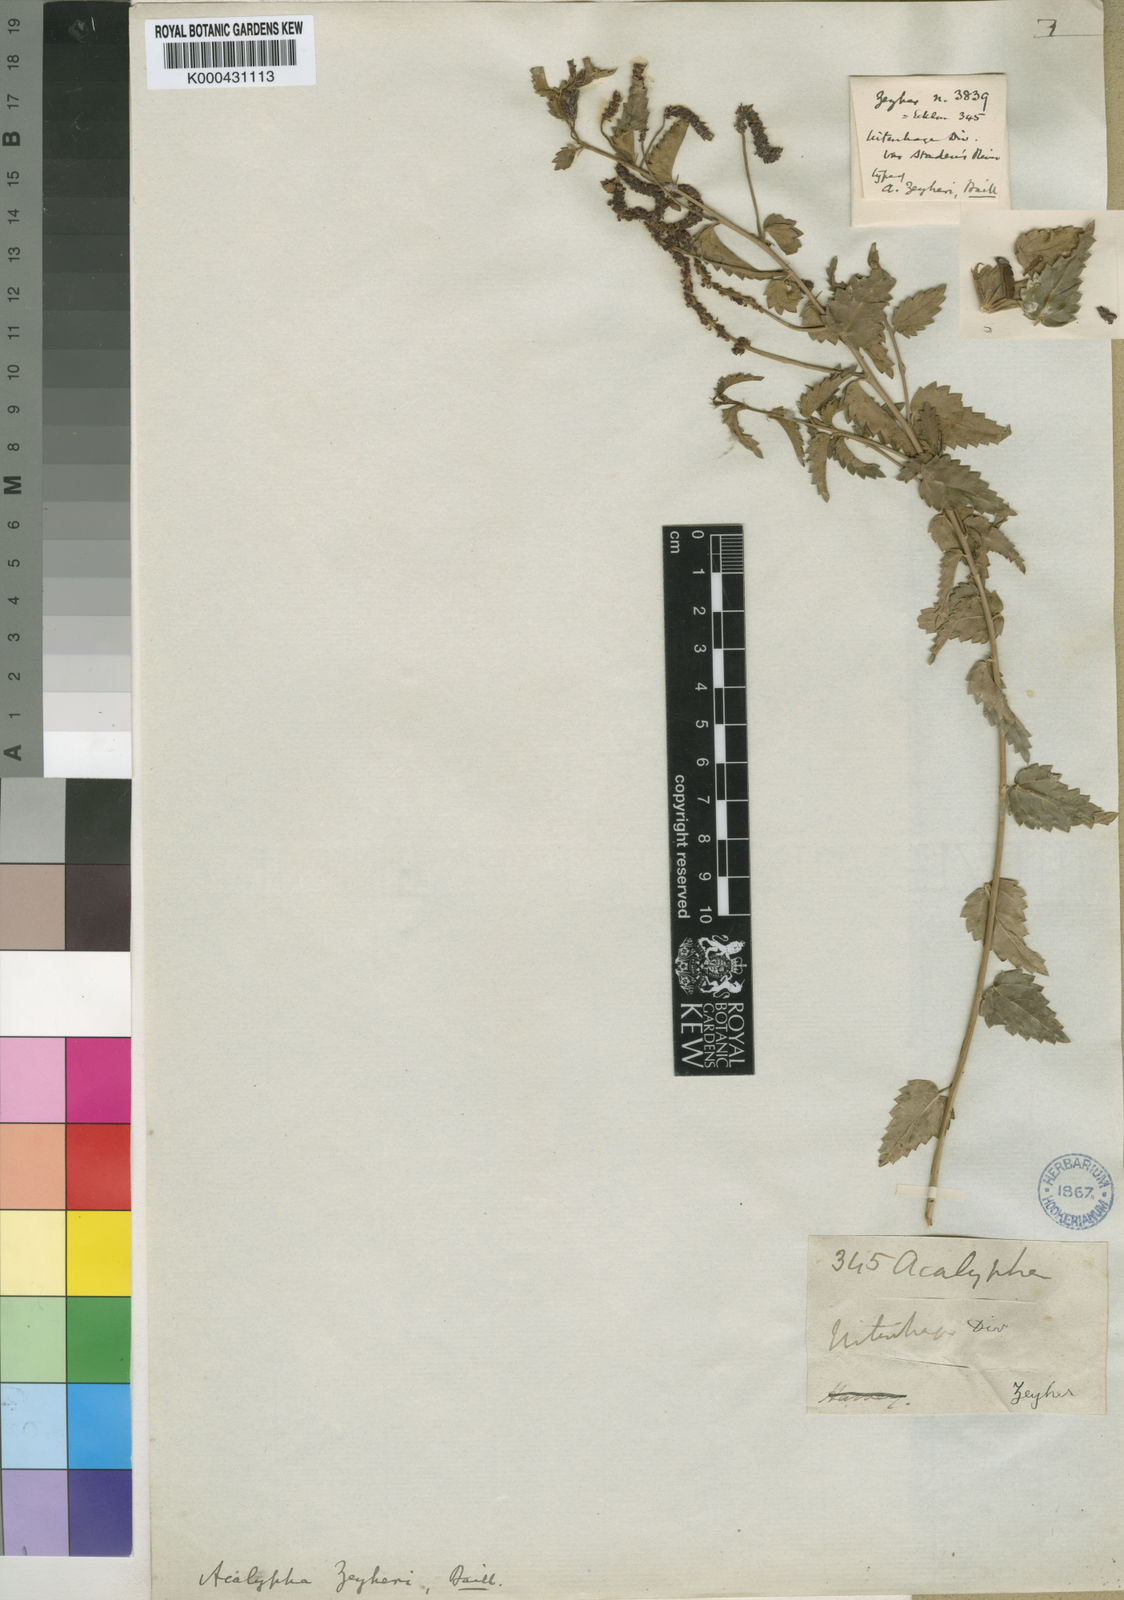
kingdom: Plantae
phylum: Tracheophyta
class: Magnoliopsida
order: Malpighiales
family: Euphorbiaceae
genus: Acalypha
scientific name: Acalypha zeyheri
